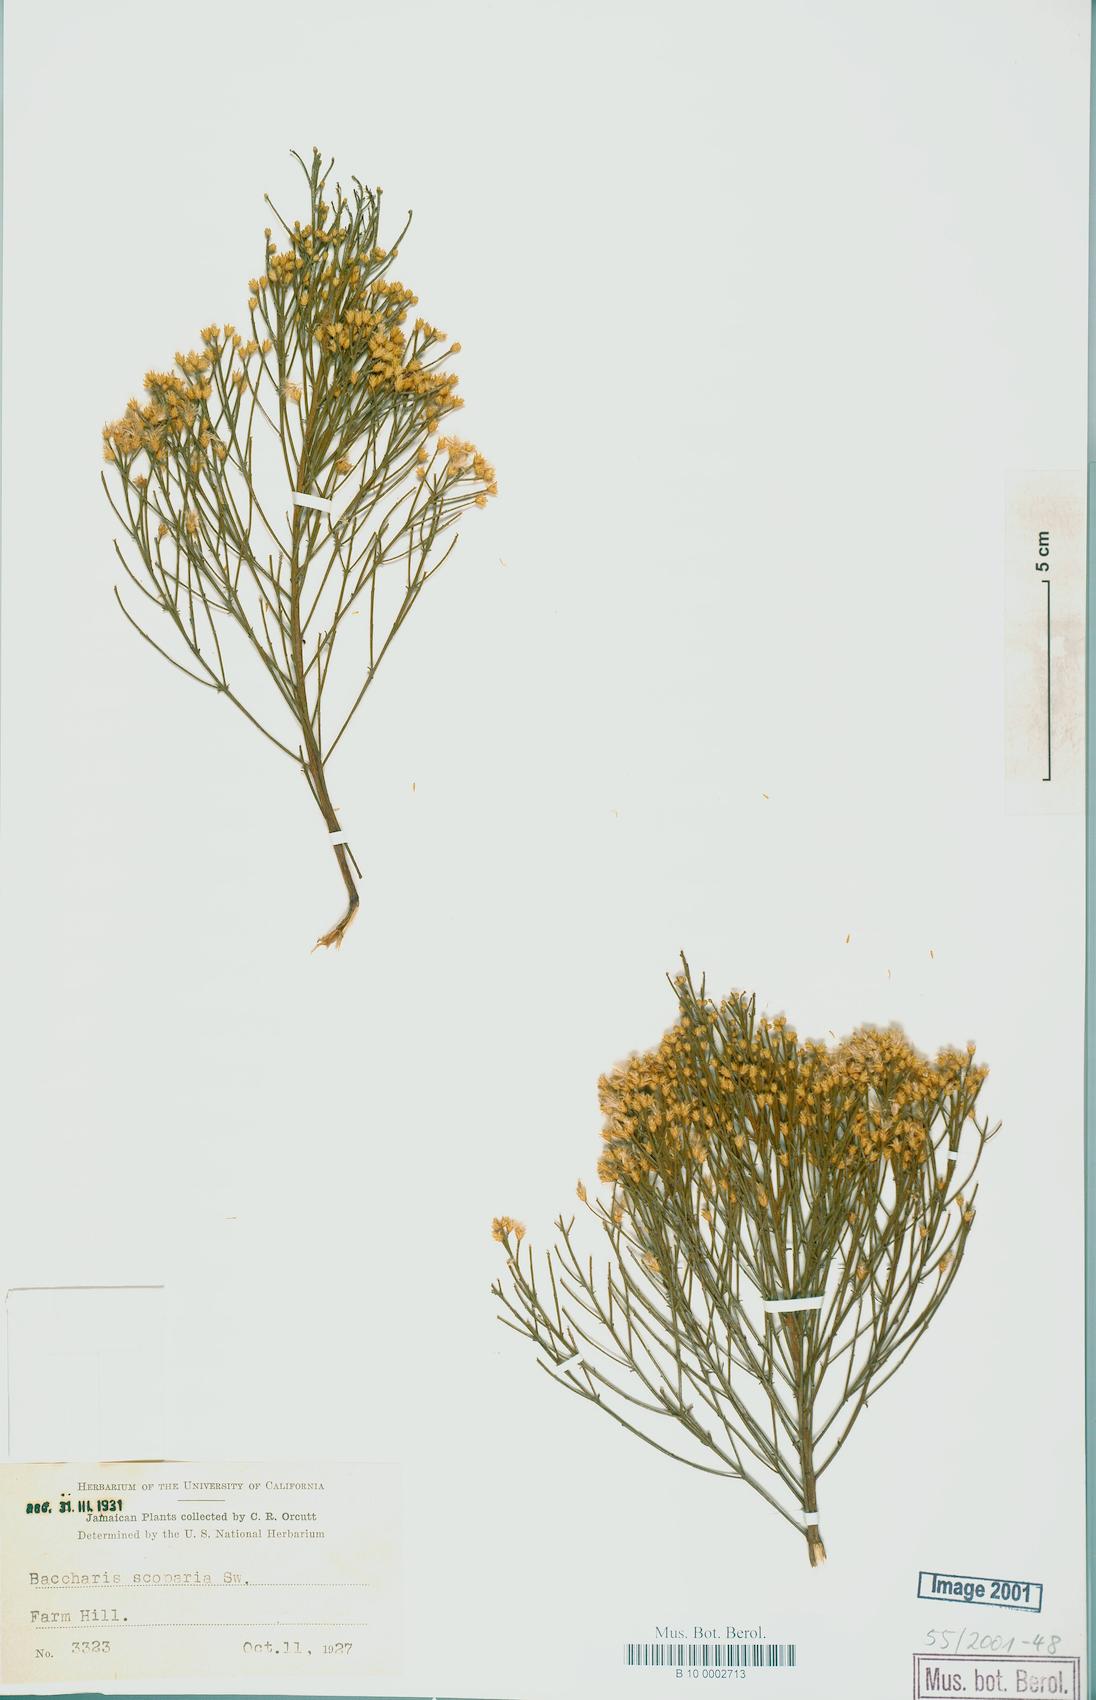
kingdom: Plantae
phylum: Tracheophyta
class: Magnoliopsida
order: Asterales
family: Asteraceae
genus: Baccharis
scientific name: Baccharis scoparia
